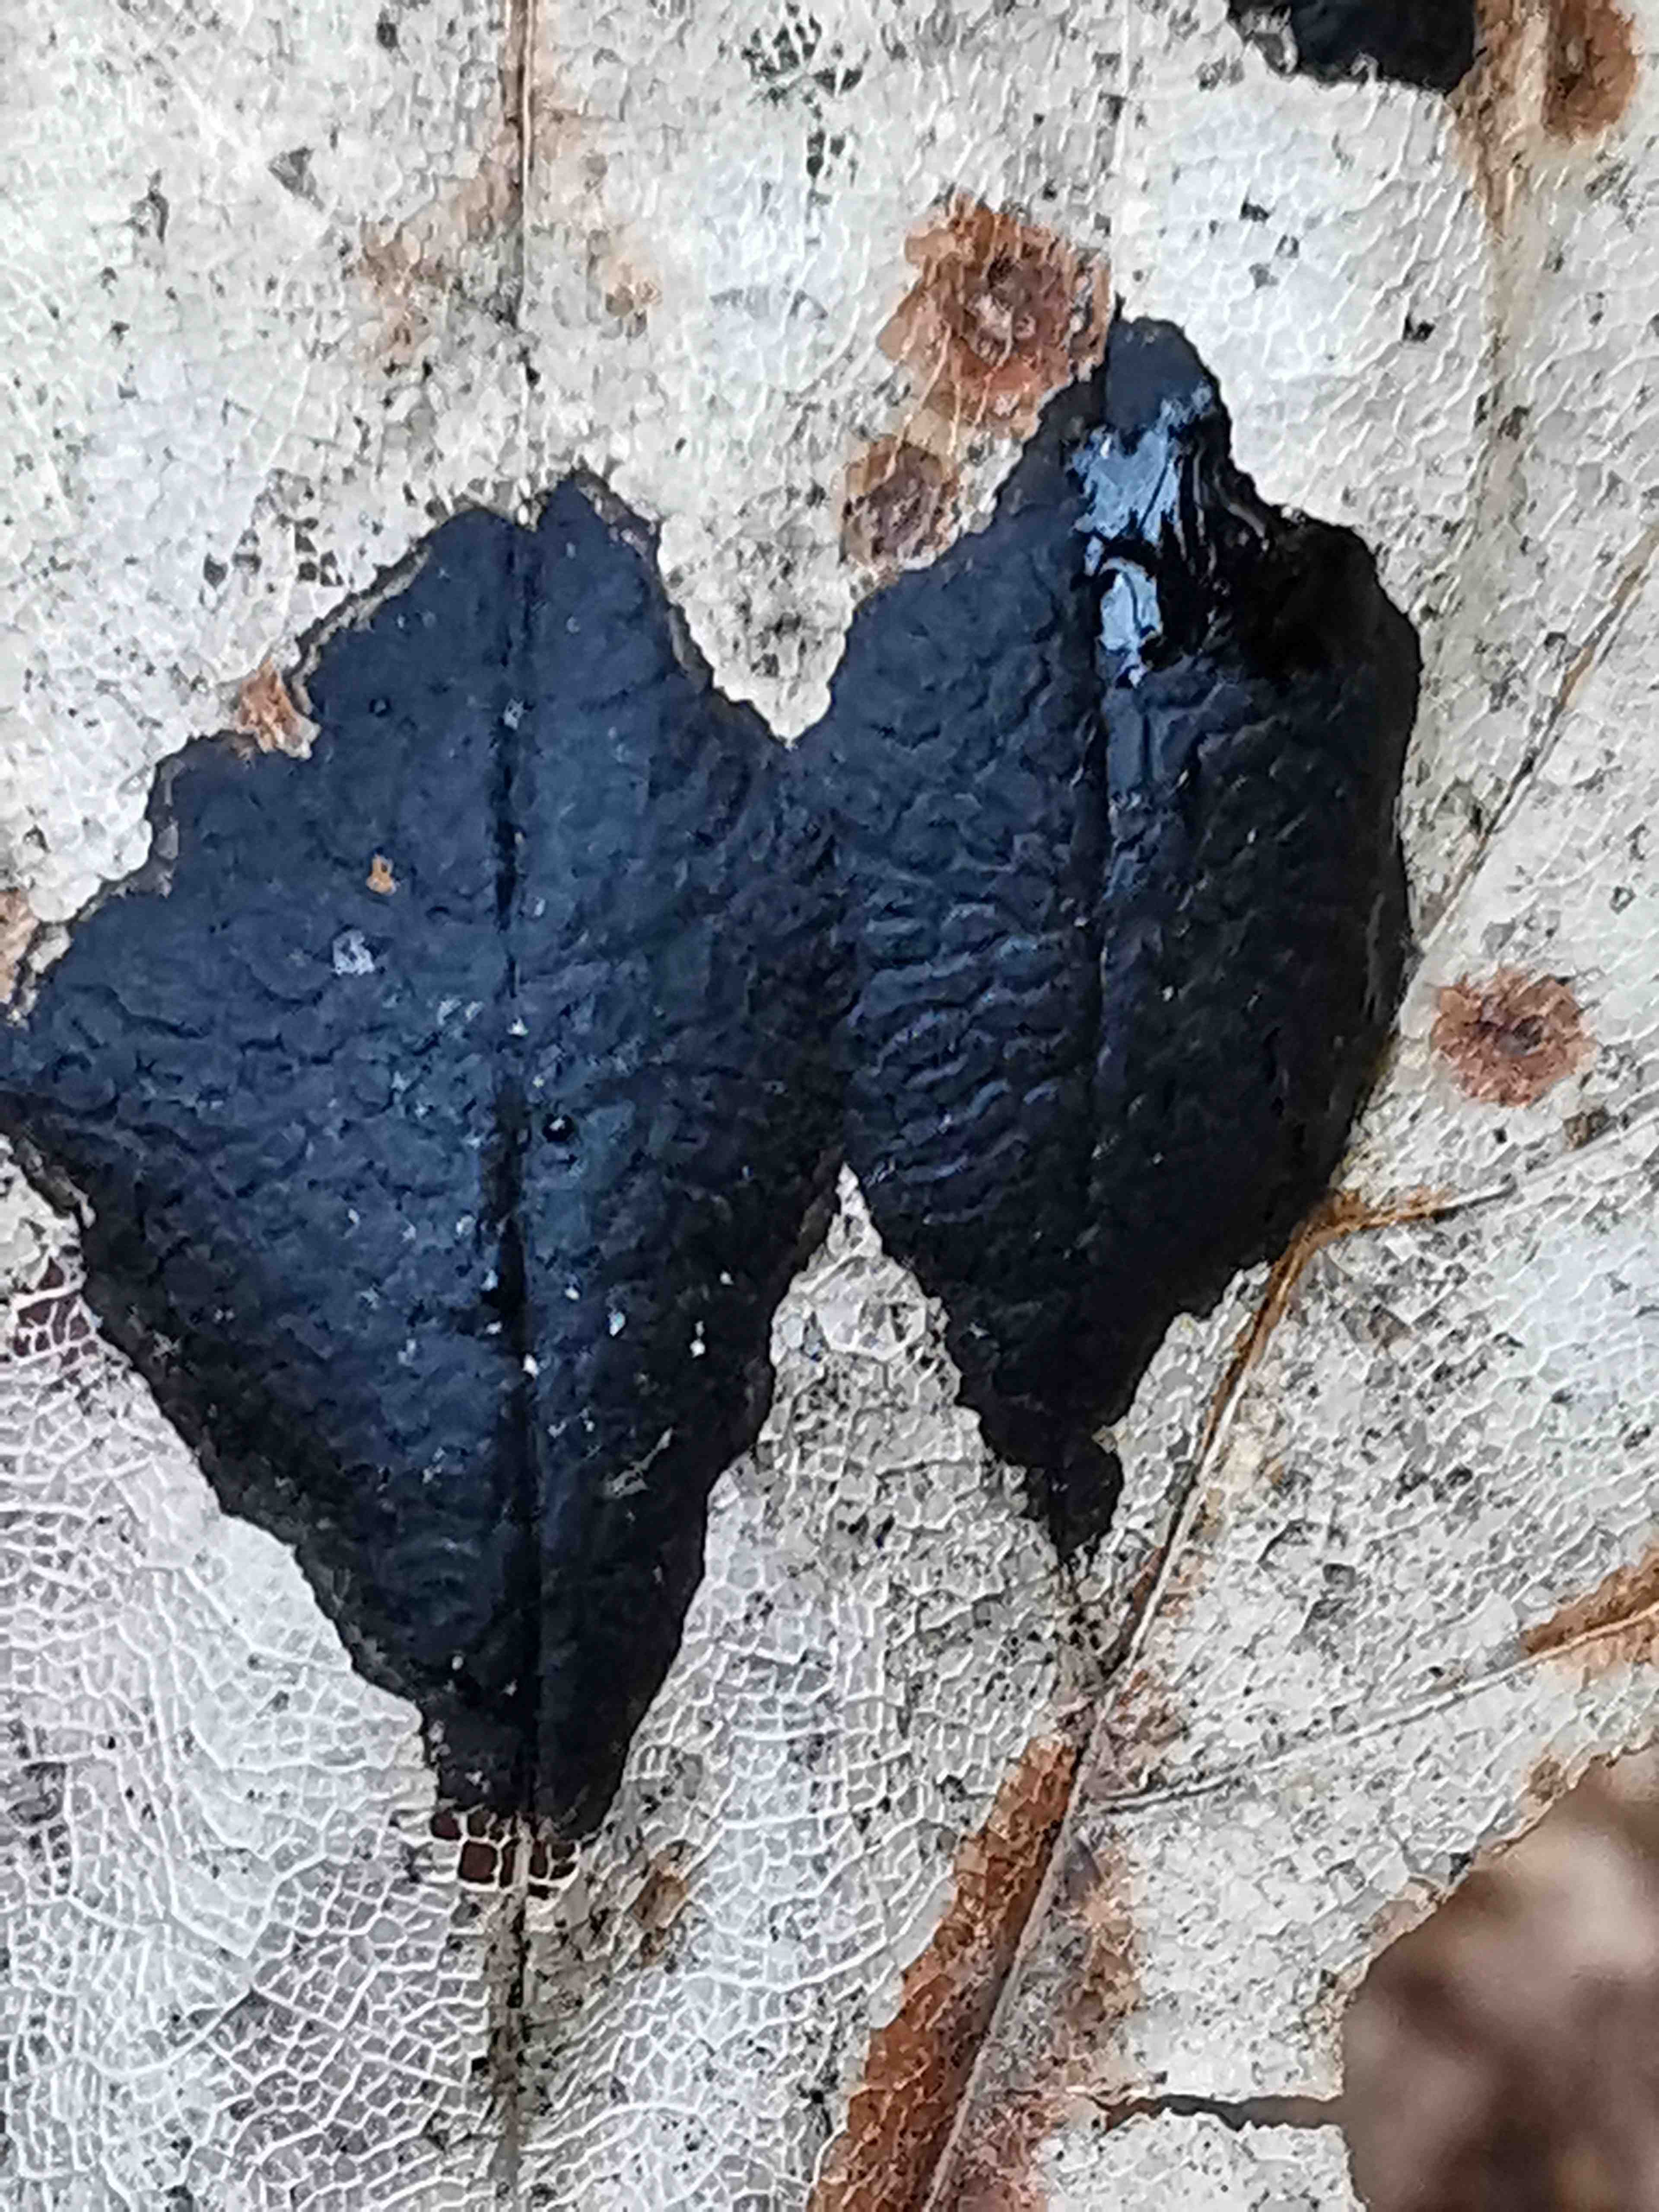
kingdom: Fungi
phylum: Ascomycota
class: Leotiomycetes
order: Rhytismatales
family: Rhytismataceae
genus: Rhytisma
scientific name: Rhytisma acerinum
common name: ahorn-rynkeplet
